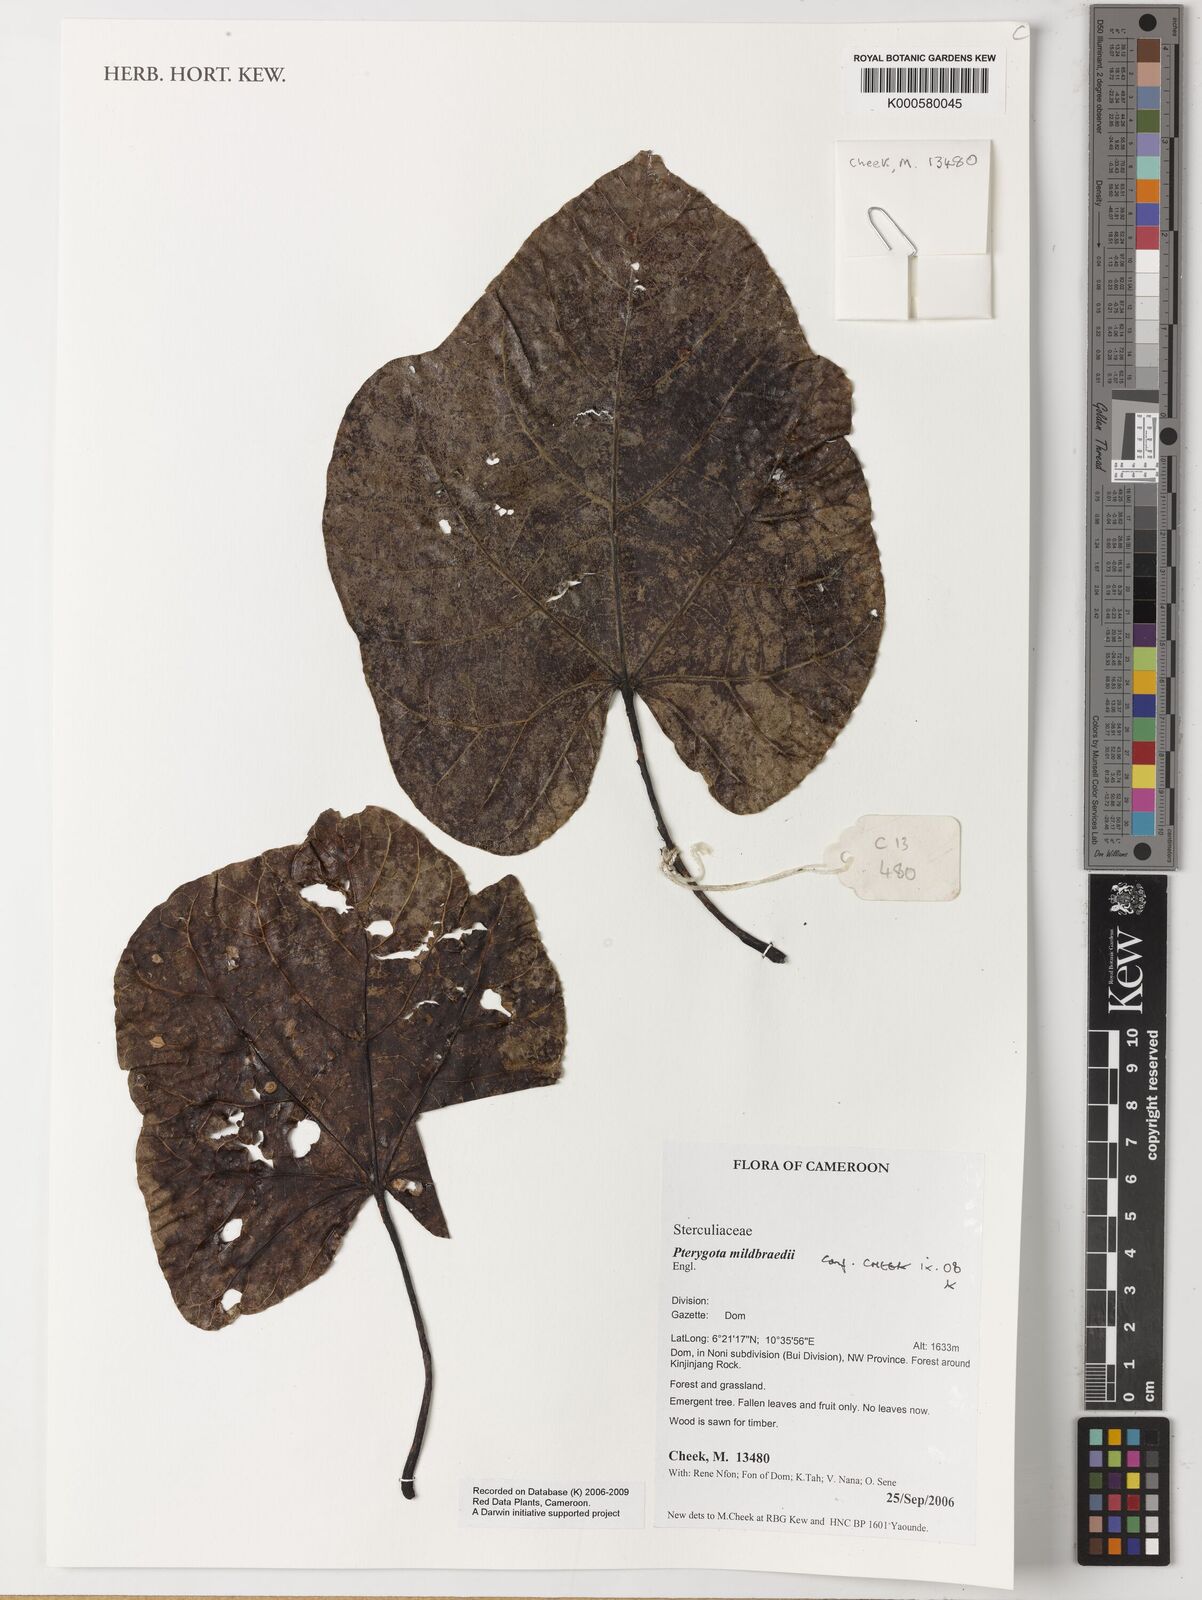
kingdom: Plantae
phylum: Tracheophyta
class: Magnoliopsida
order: Malvales
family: Malvaceae
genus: Pterygota
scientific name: Pterygota mildbraedii
